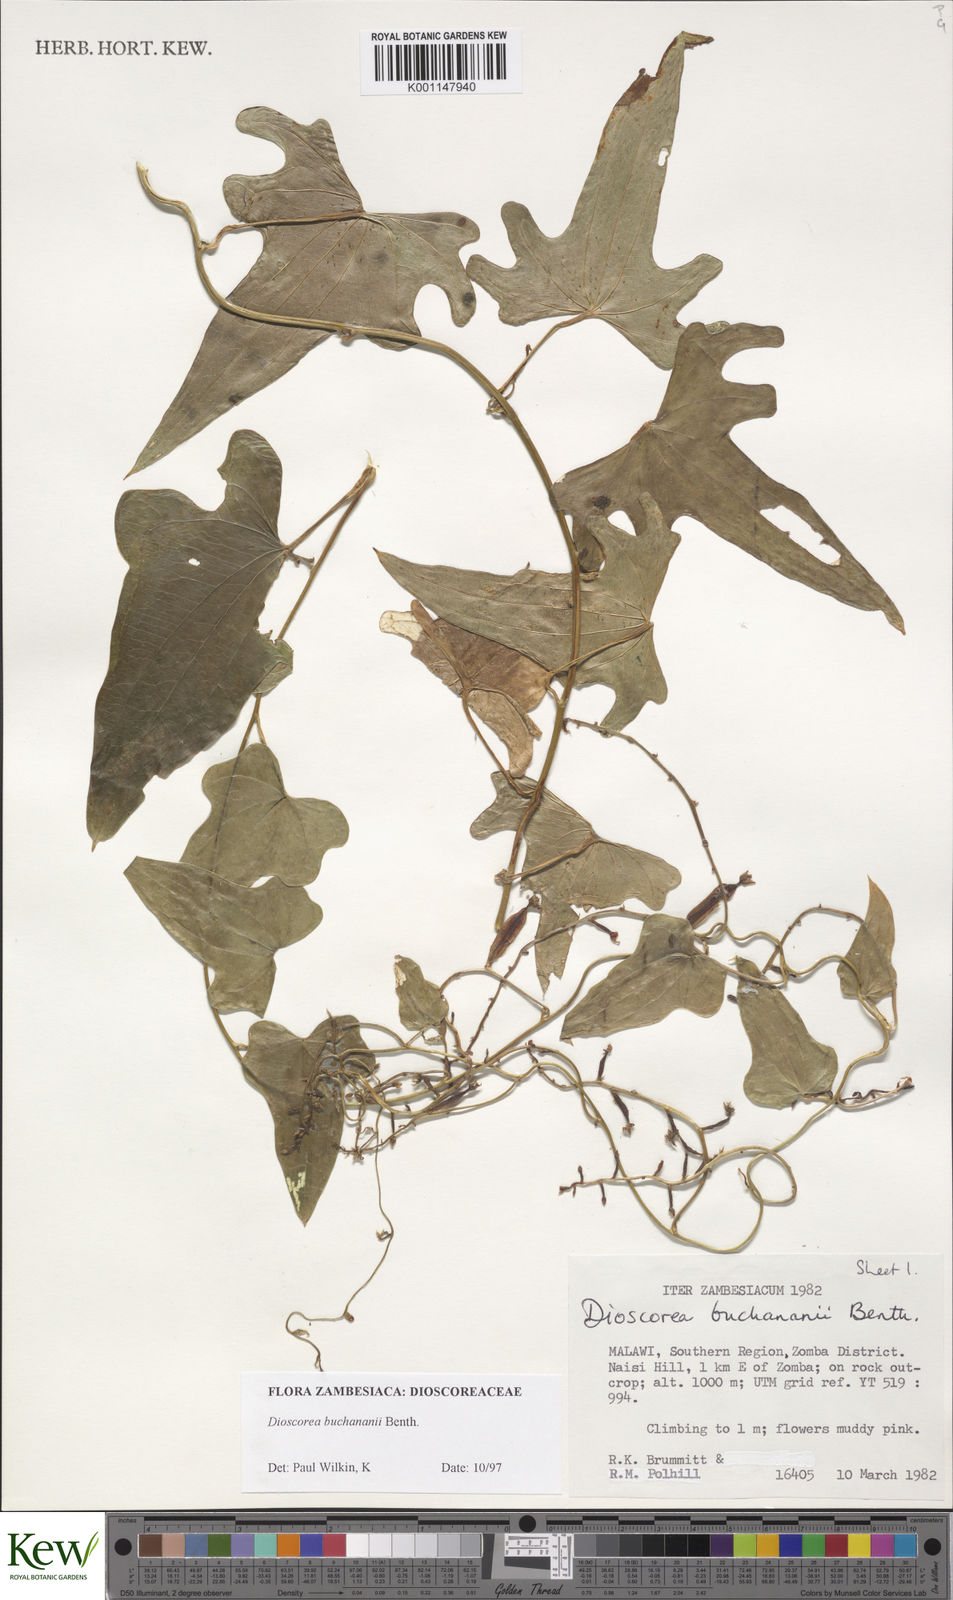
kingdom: Plantae
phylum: Tracheophyta
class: Liliopsida
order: Dioscoreales
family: Dioscoreaceae
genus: Dioscorea
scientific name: Dioscorea buchananii
